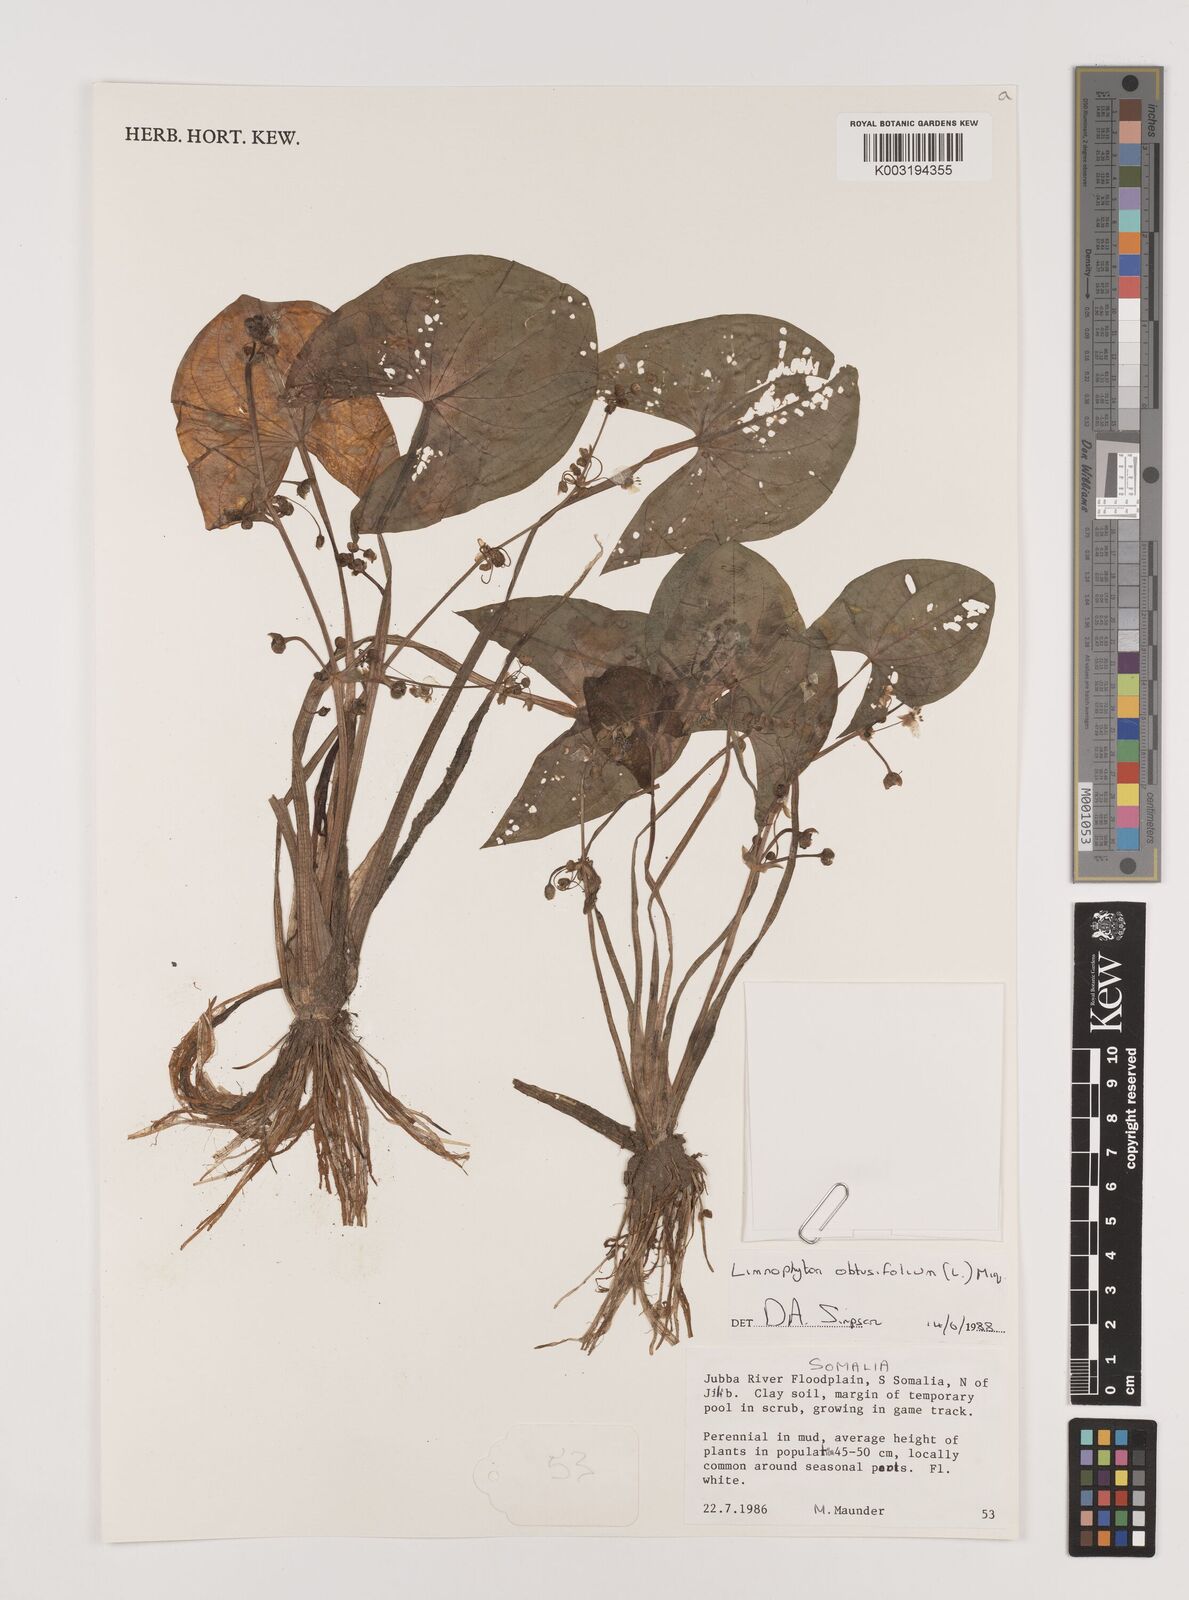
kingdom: Plantae
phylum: Tracheophyta
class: Liliopsida
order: Alismatales
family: Alismataceae
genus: Limnophyton
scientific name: Limnophyton obtusifolium
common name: Arrow head
